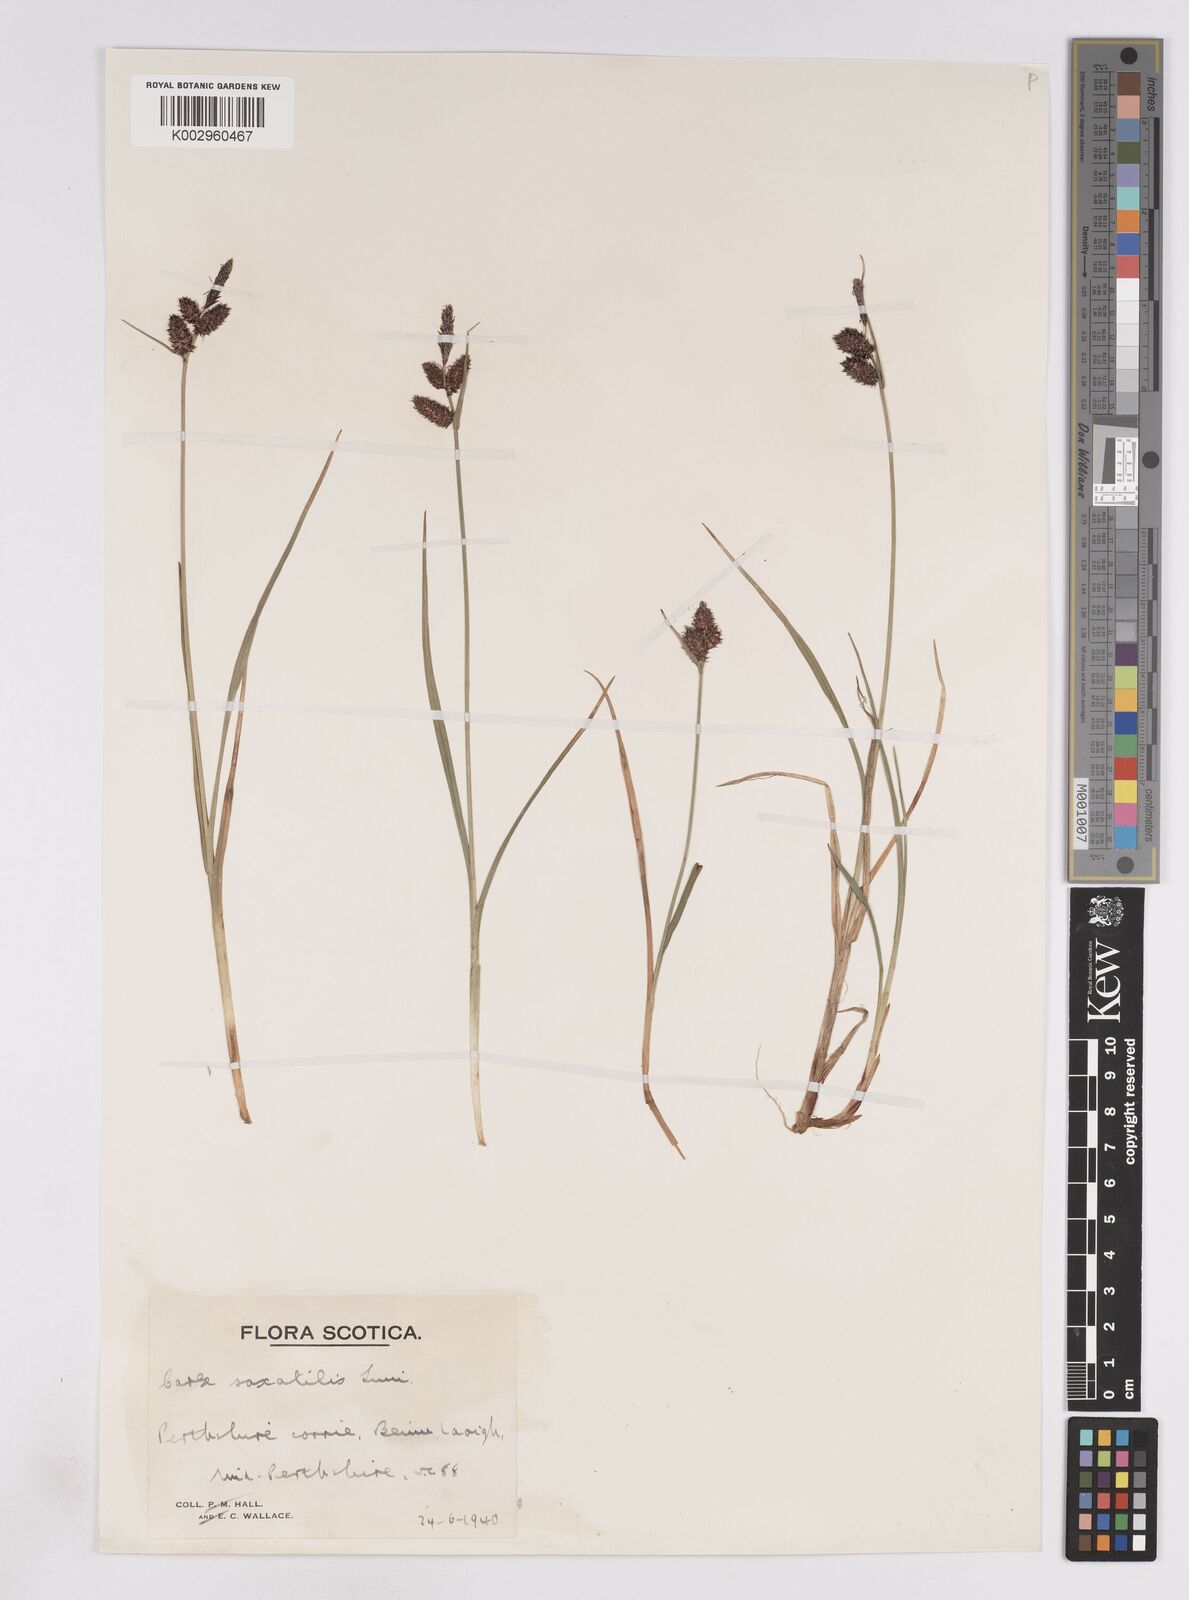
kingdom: Plantae
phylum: Tracheophyta
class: Liliopsida
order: Poales
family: Cyperaceae
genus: Carex
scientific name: Carex saxatilis
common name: Russet sedge
